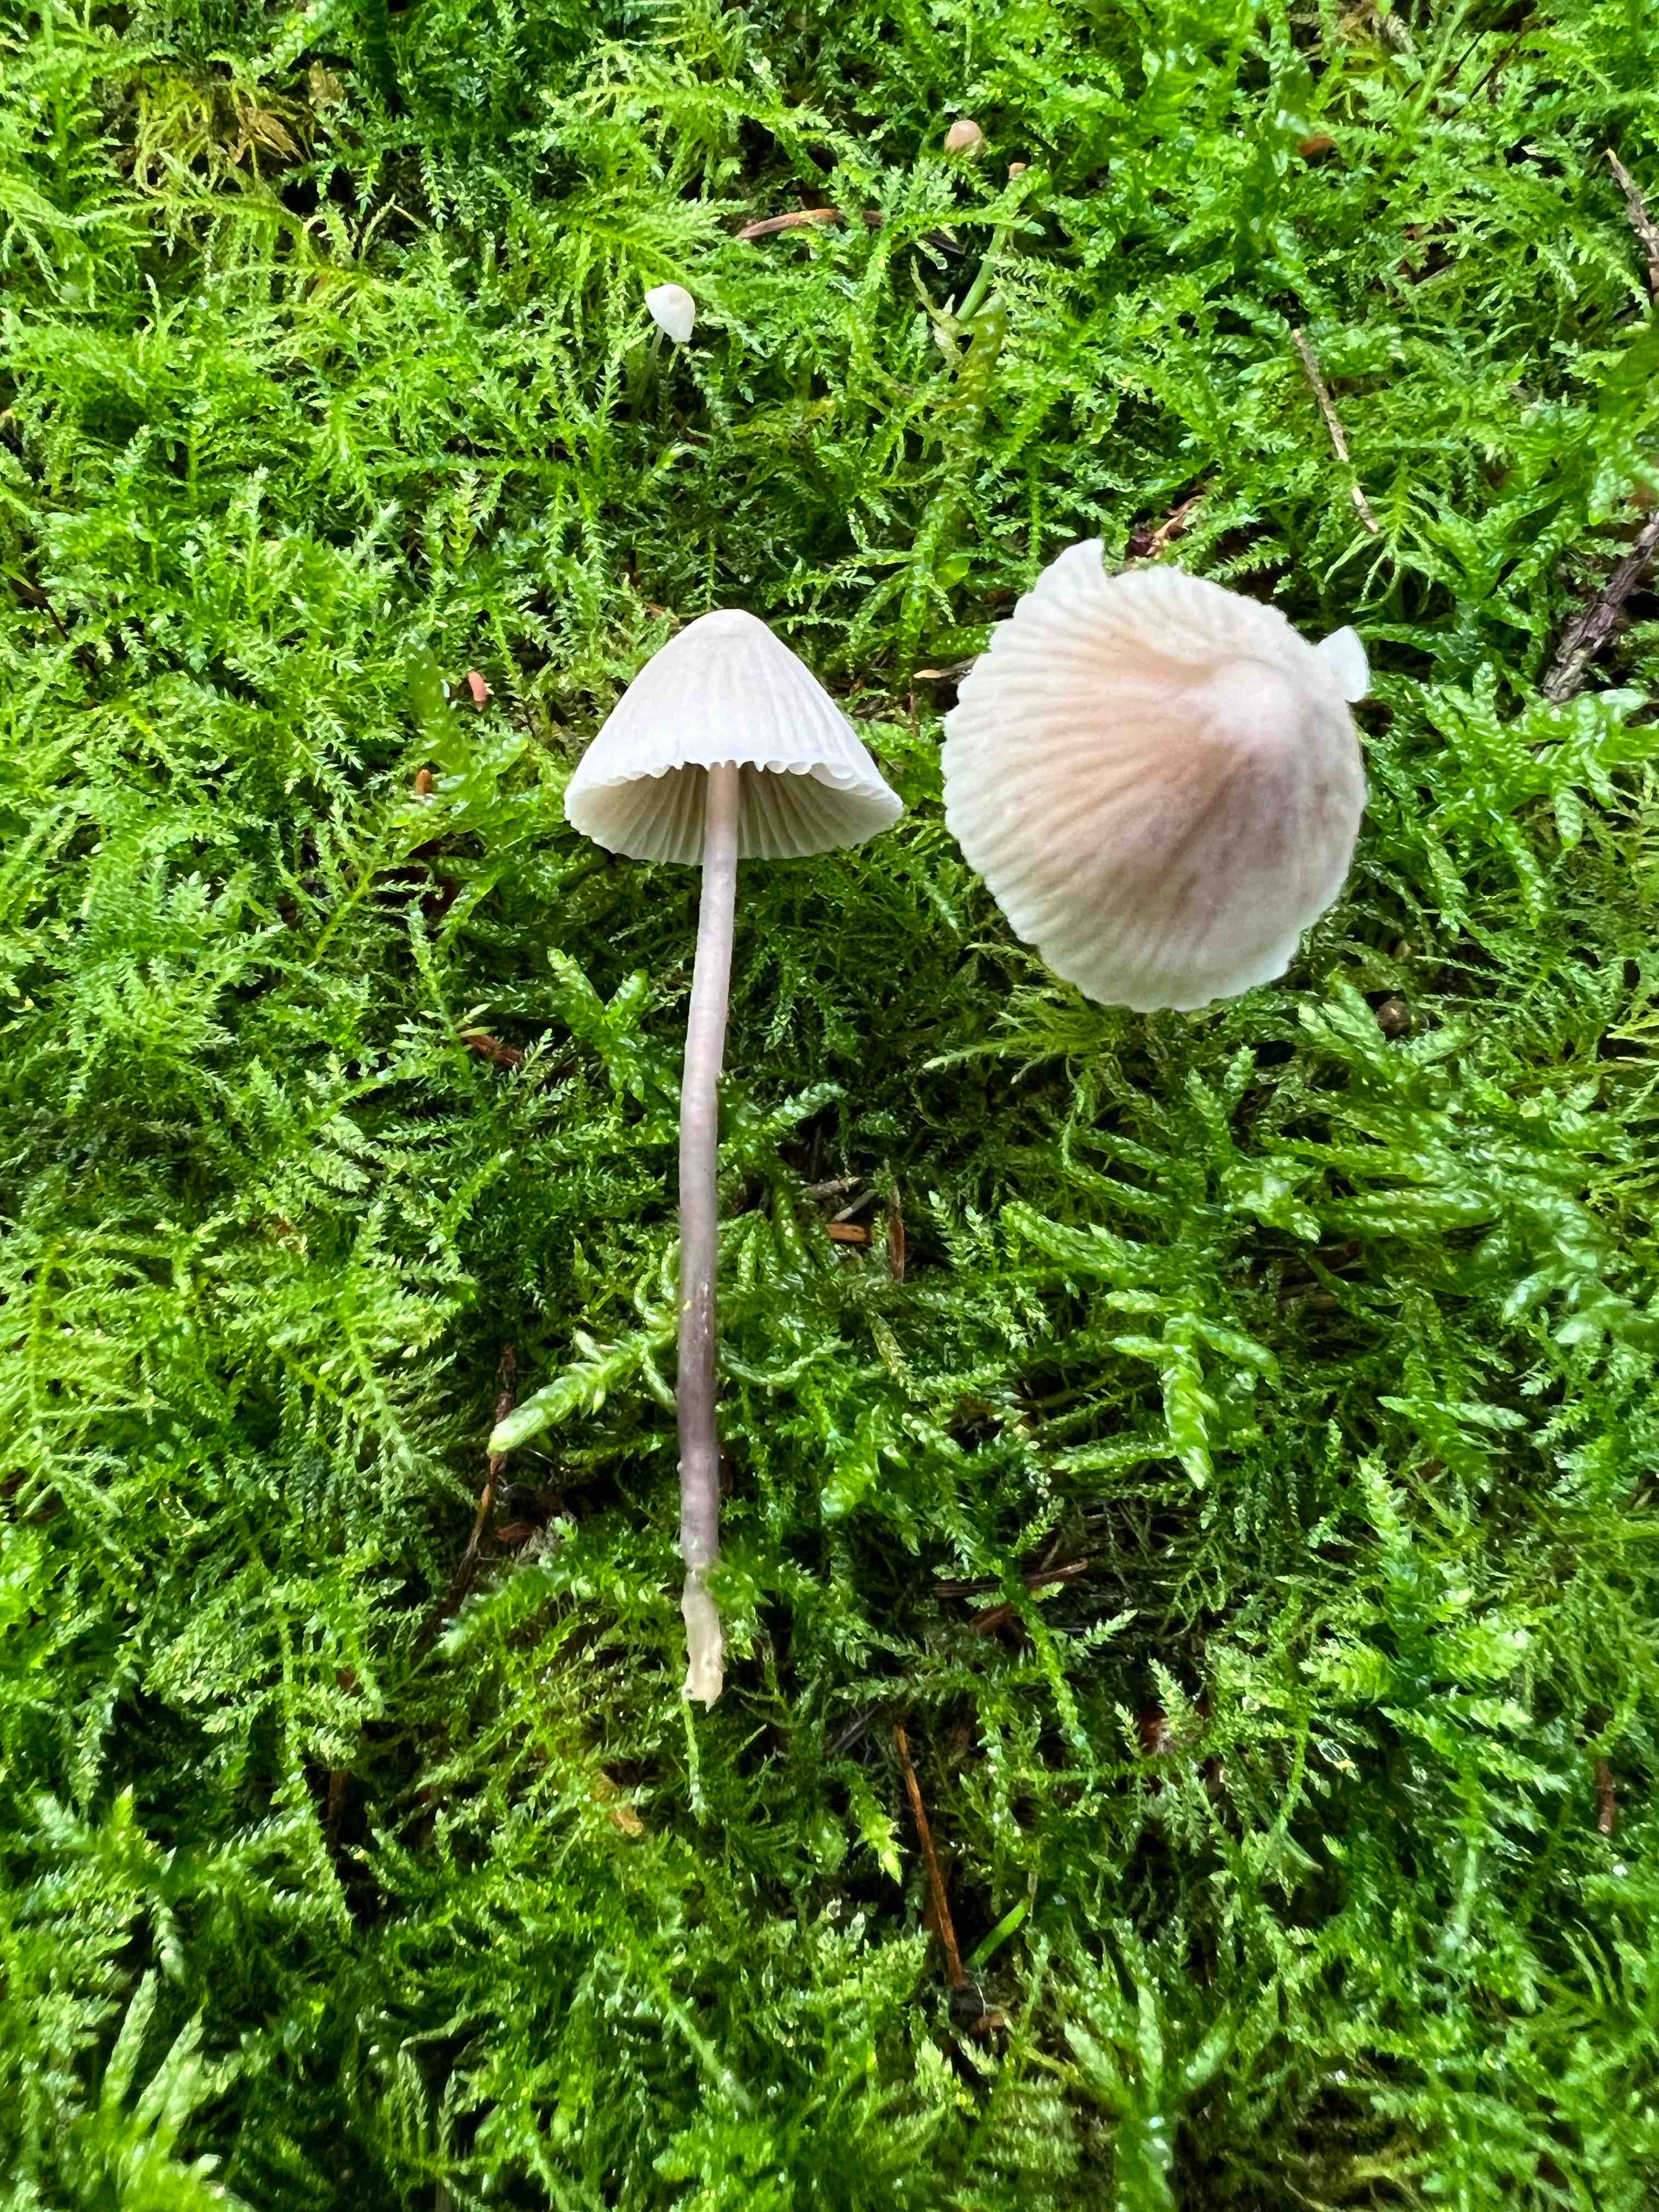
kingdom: Fungi
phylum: Basidiomycota
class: Agaricomycetes
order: Agaricales
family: Mycenaceae
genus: Mycena
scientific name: Mycena leptocephala
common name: klor-huesvamp
